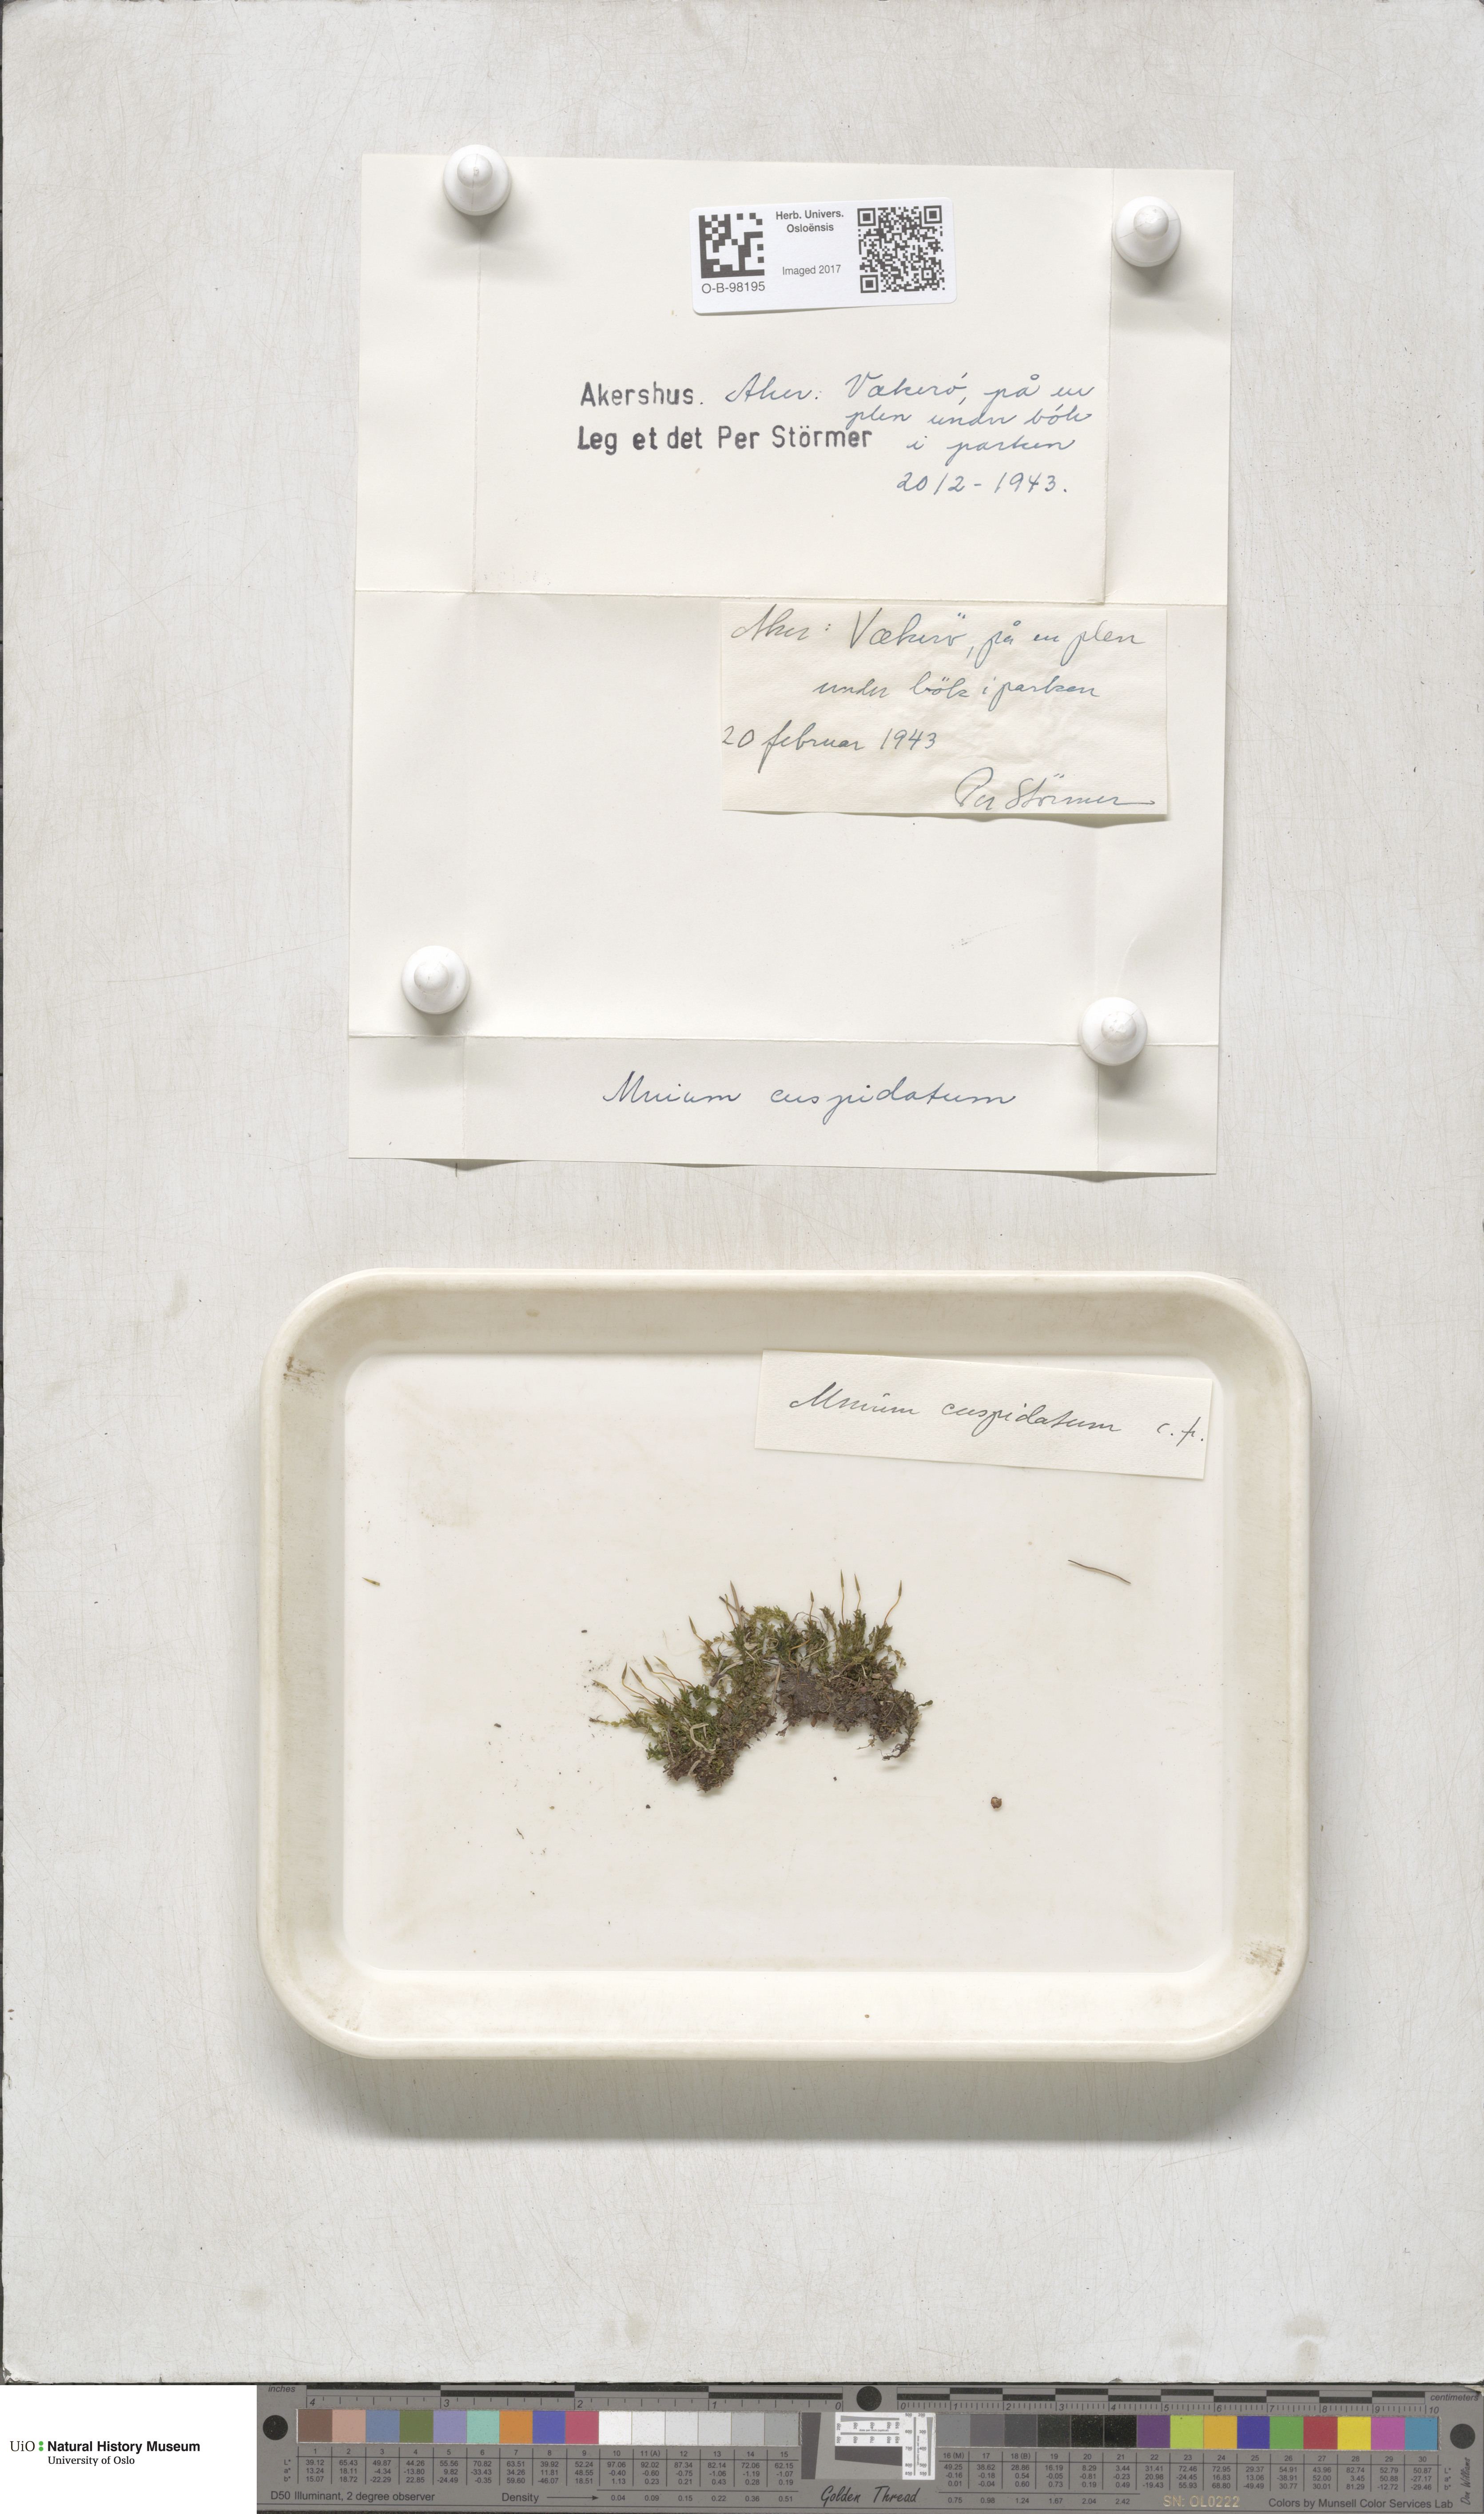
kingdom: Plantae
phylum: Bryophyta
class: Bryopsida
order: Bryales
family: Mniaceae
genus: Plagiomnium
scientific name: Plagiomnium affine
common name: Many-fruited thyme-moss
